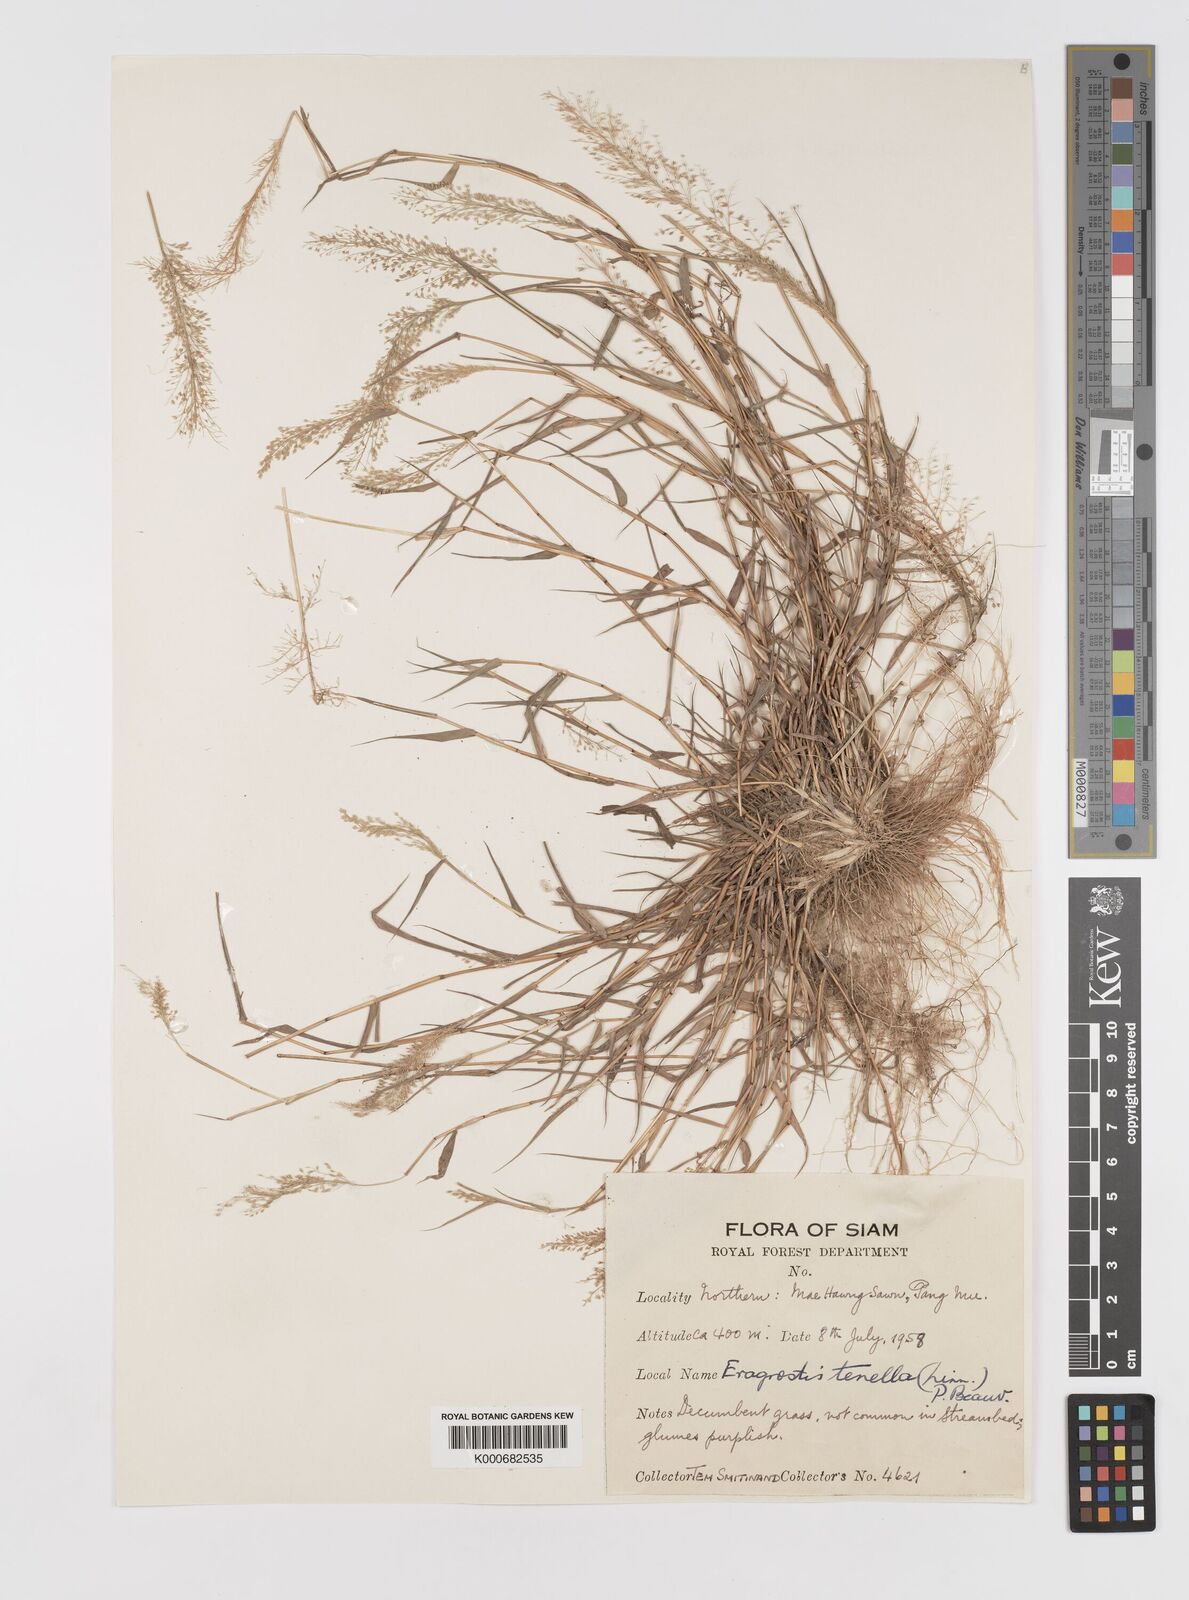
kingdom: Plantae
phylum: Tracheophyta
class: Liliopsida
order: Poales
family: Poaceae
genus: Eragrostis
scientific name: Eragrostis tenella
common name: Japanese lovegrass
